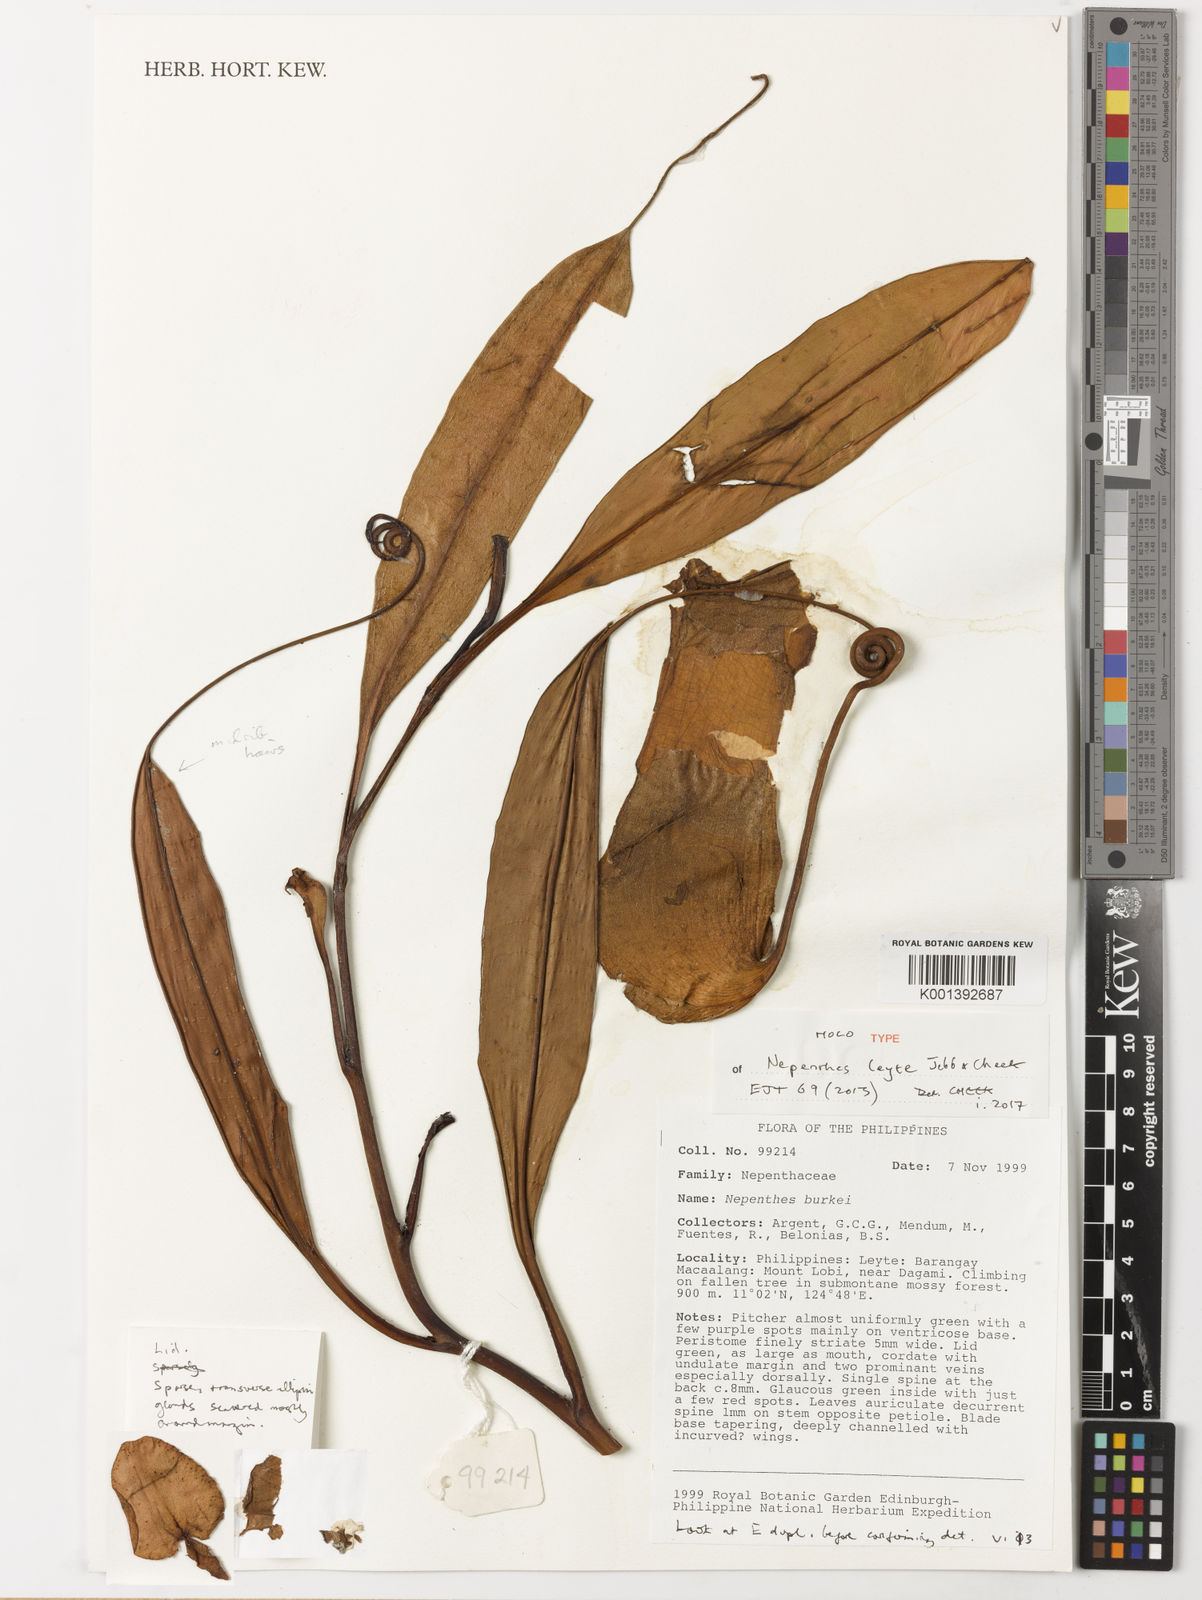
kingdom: Plantae
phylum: Tracheophyta
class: Magnoliopsida
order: Caryophyllales
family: Nepenthaceae
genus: Nepenthes
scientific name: Nepenthes leyte
